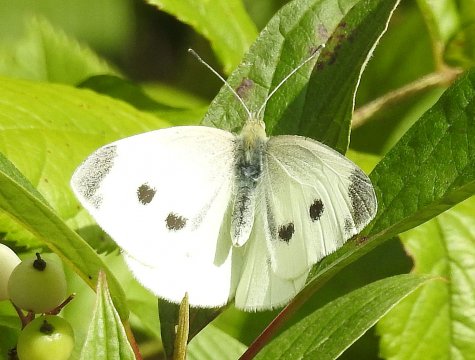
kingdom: Animalia
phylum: Arthropoda
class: Insecta
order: Lepidoptera
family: Pieridae
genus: Pieris
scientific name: Pieris rapae
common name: Cabbage White
